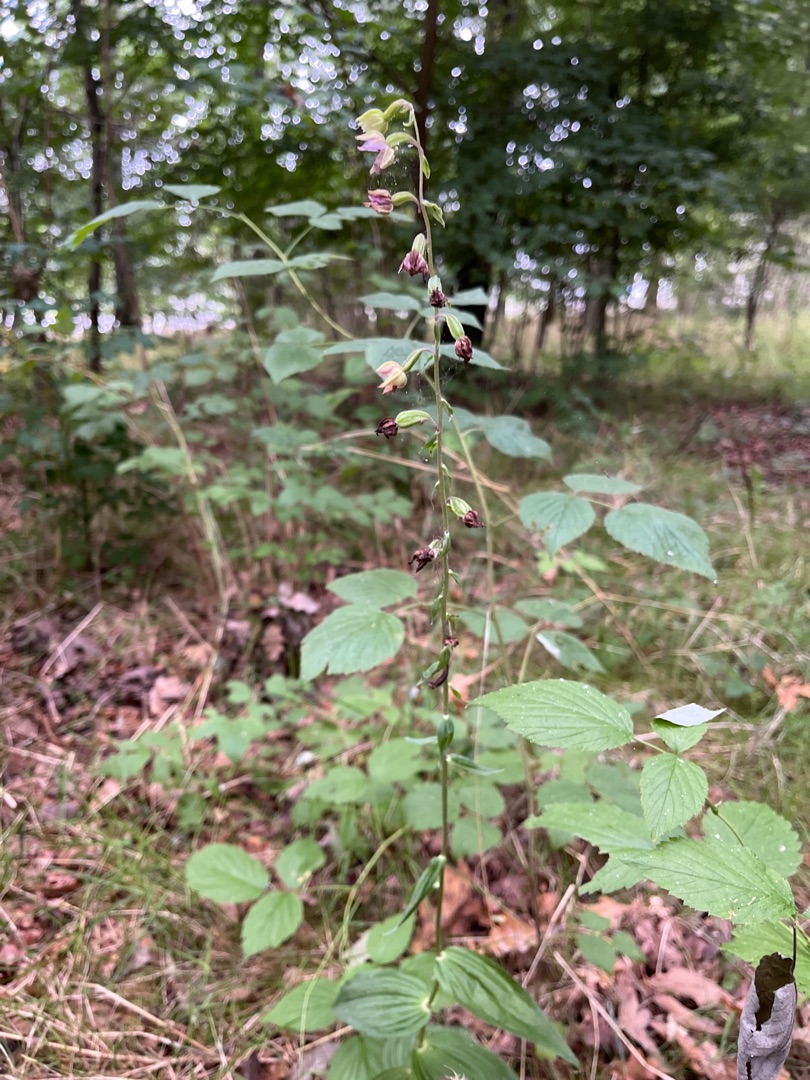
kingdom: Plantae
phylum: Tracheophyta
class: Liliopsida
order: Asparagales
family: Orchidaceae
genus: Epipactis
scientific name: Epipactis helleborine
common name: Skov-hullæbe
